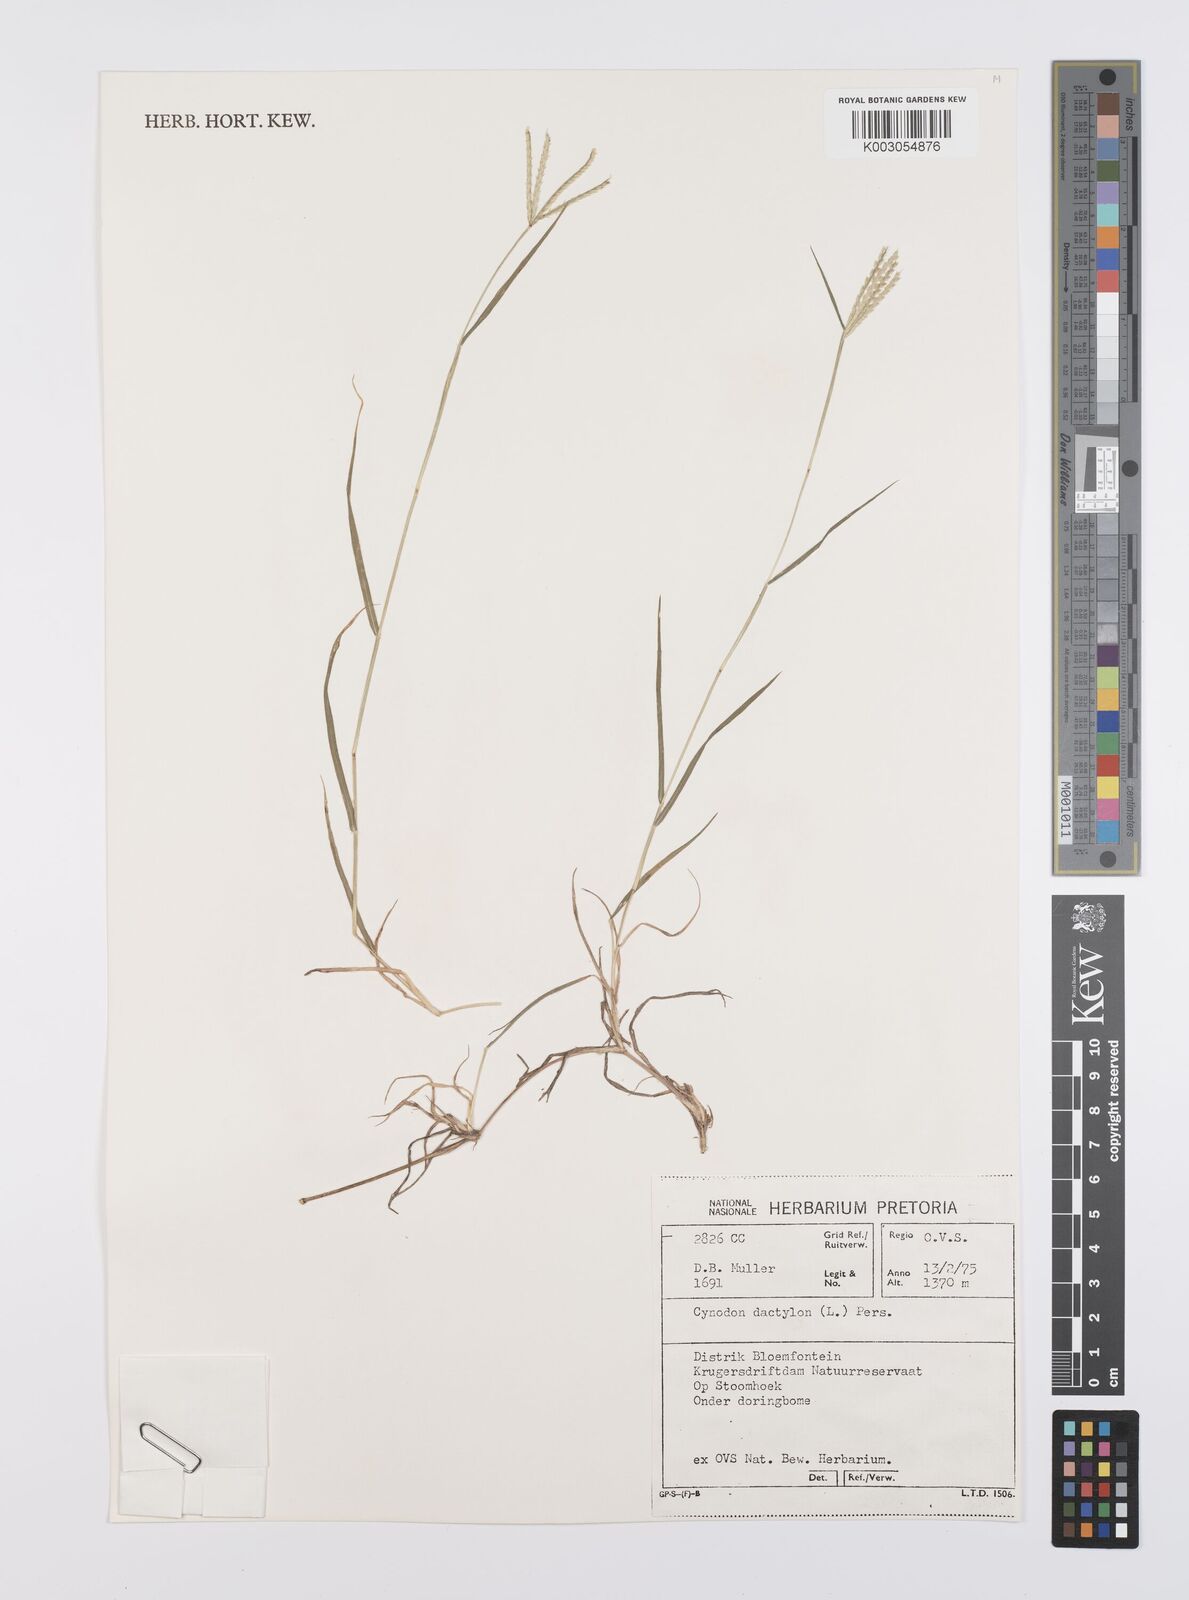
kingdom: Plantae
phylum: Tracheophyta
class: Liliopsida
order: Poales
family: Poaceae
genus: Cynodon
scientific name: Cynodon dactylon
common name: Bermuda grass
